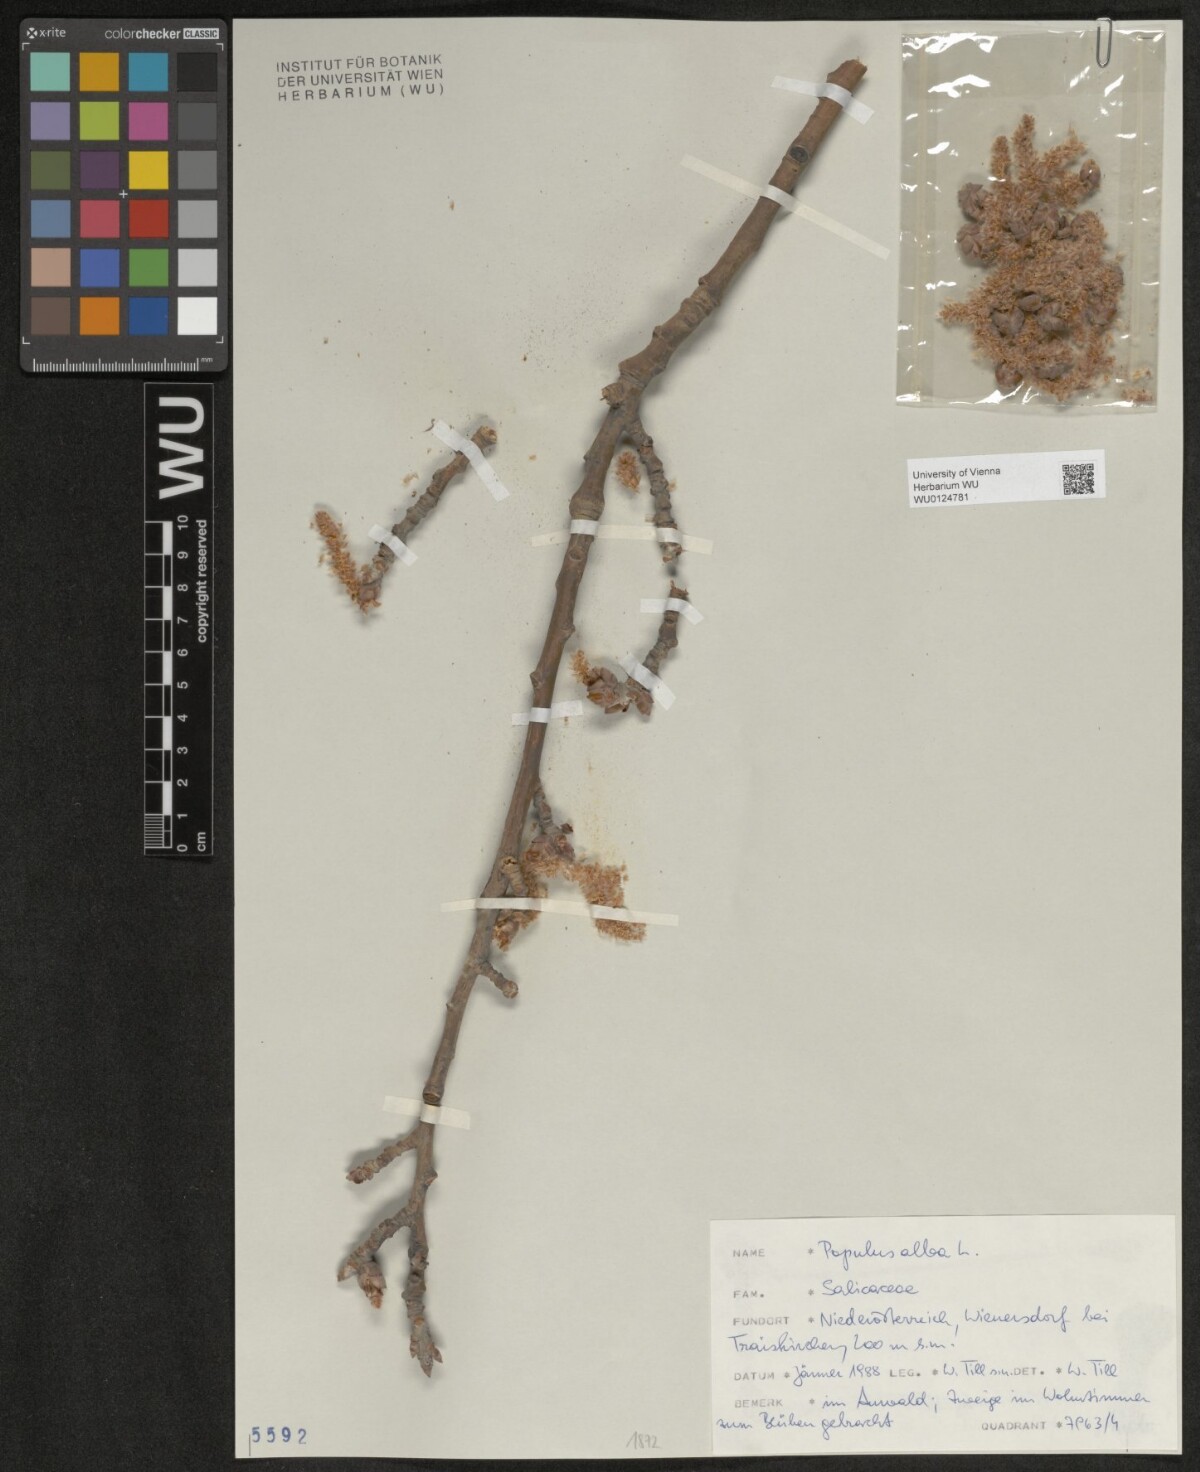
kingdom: Plantae
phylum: Tracheophyta
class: Magnoliopsida
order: Malpighiales
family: Salicaceae
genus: Populus
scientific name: Populus alba
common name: White poplar
